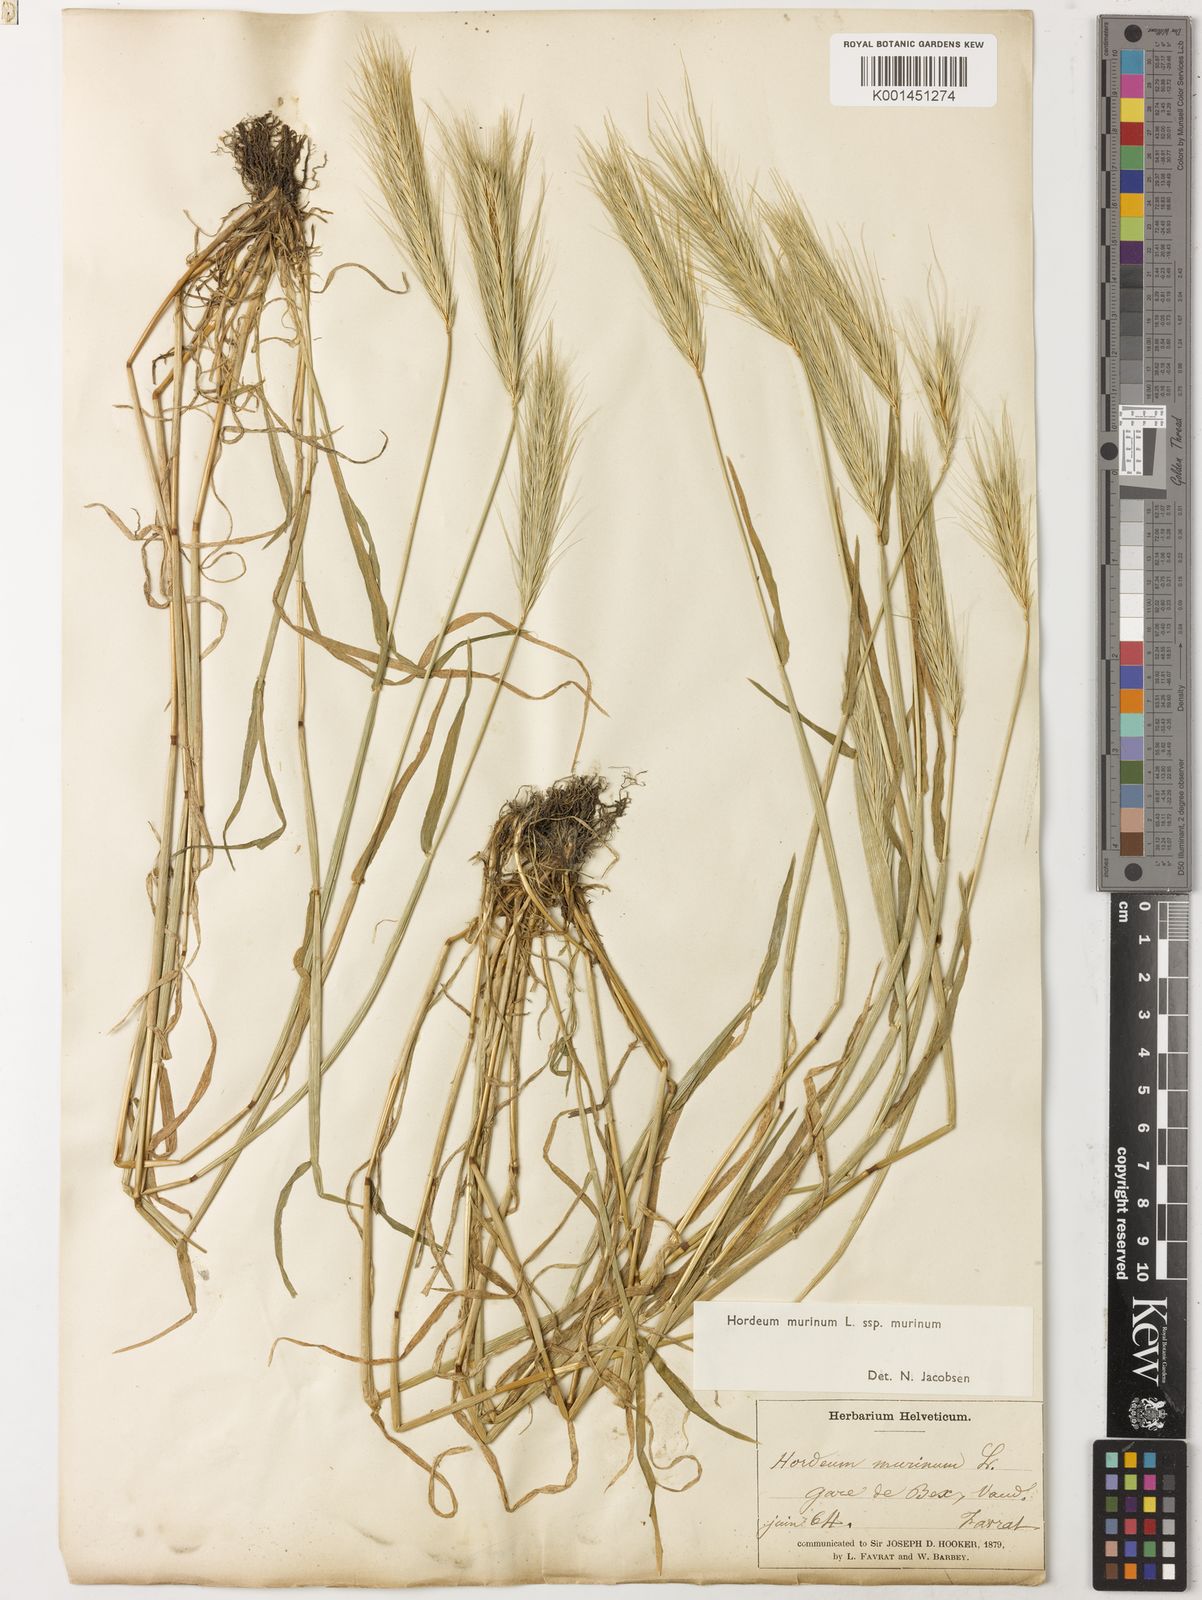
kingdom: Plantae
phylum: Tracheophyta
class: Liliopsida
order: Poales
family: Poaceae
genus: Hordeum
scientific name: Hordeum murinum
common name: Wall barley
